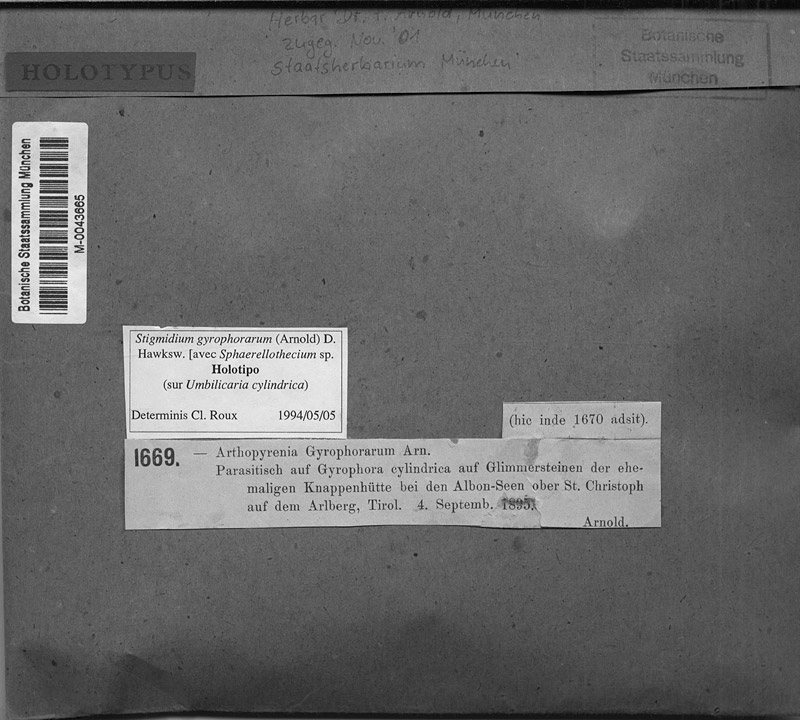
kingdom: Fungi
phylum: Ascomycota
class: Lecanoromycetes
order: Umbilicariales
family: Umbilicariaceae
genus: Umbilicaria
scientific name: Umbilicaria cylindrica
